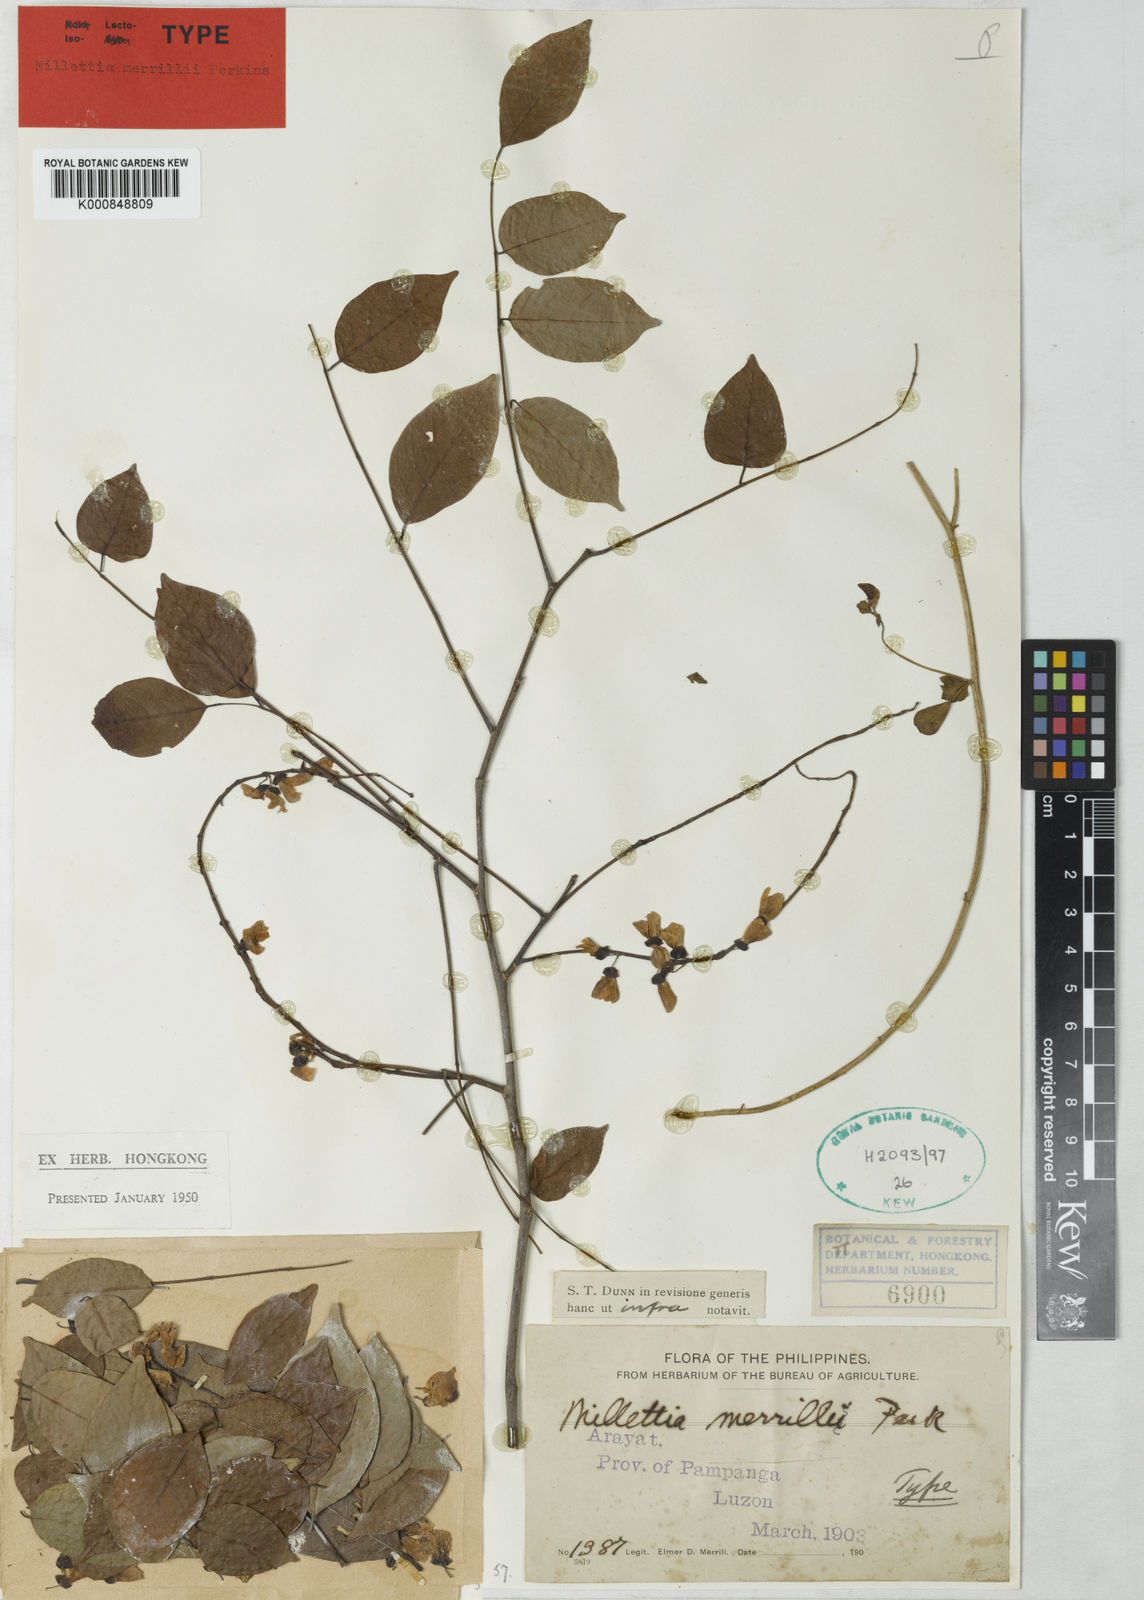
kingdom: Plantae
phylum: Tracheophyta
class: Magnoliopsida
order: Fabales
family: Fabaceae
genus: Millettia
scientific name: Millettia merrillii
